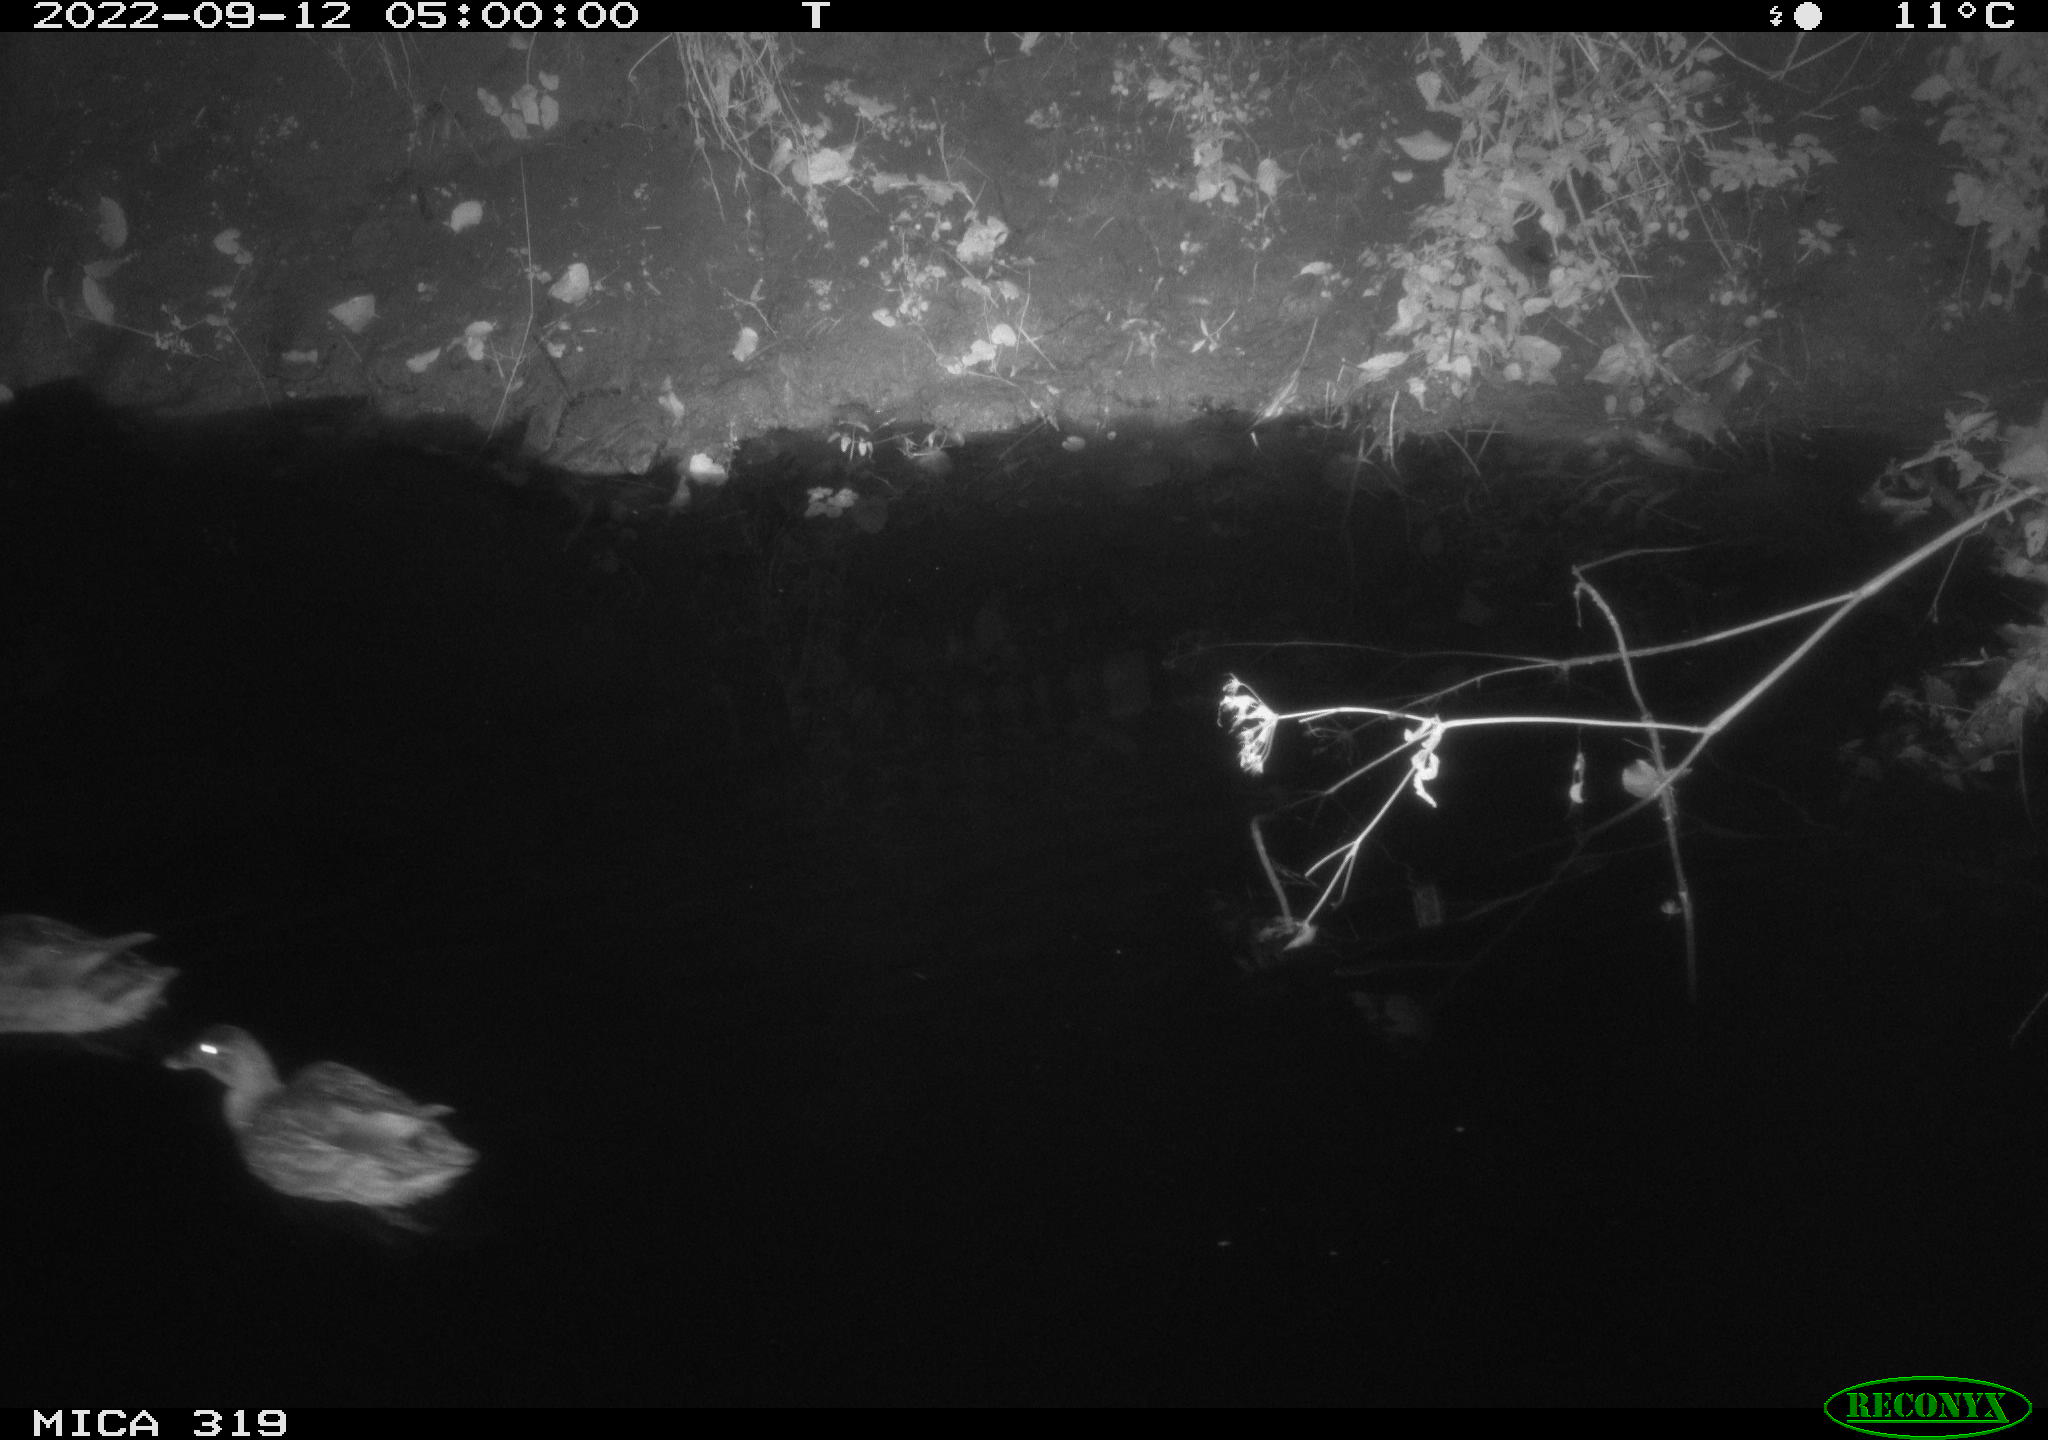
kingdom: Animalia
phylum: Chordata
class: Aves
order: Anseriformes
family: Anatidae
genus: Anas
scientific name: Anas
